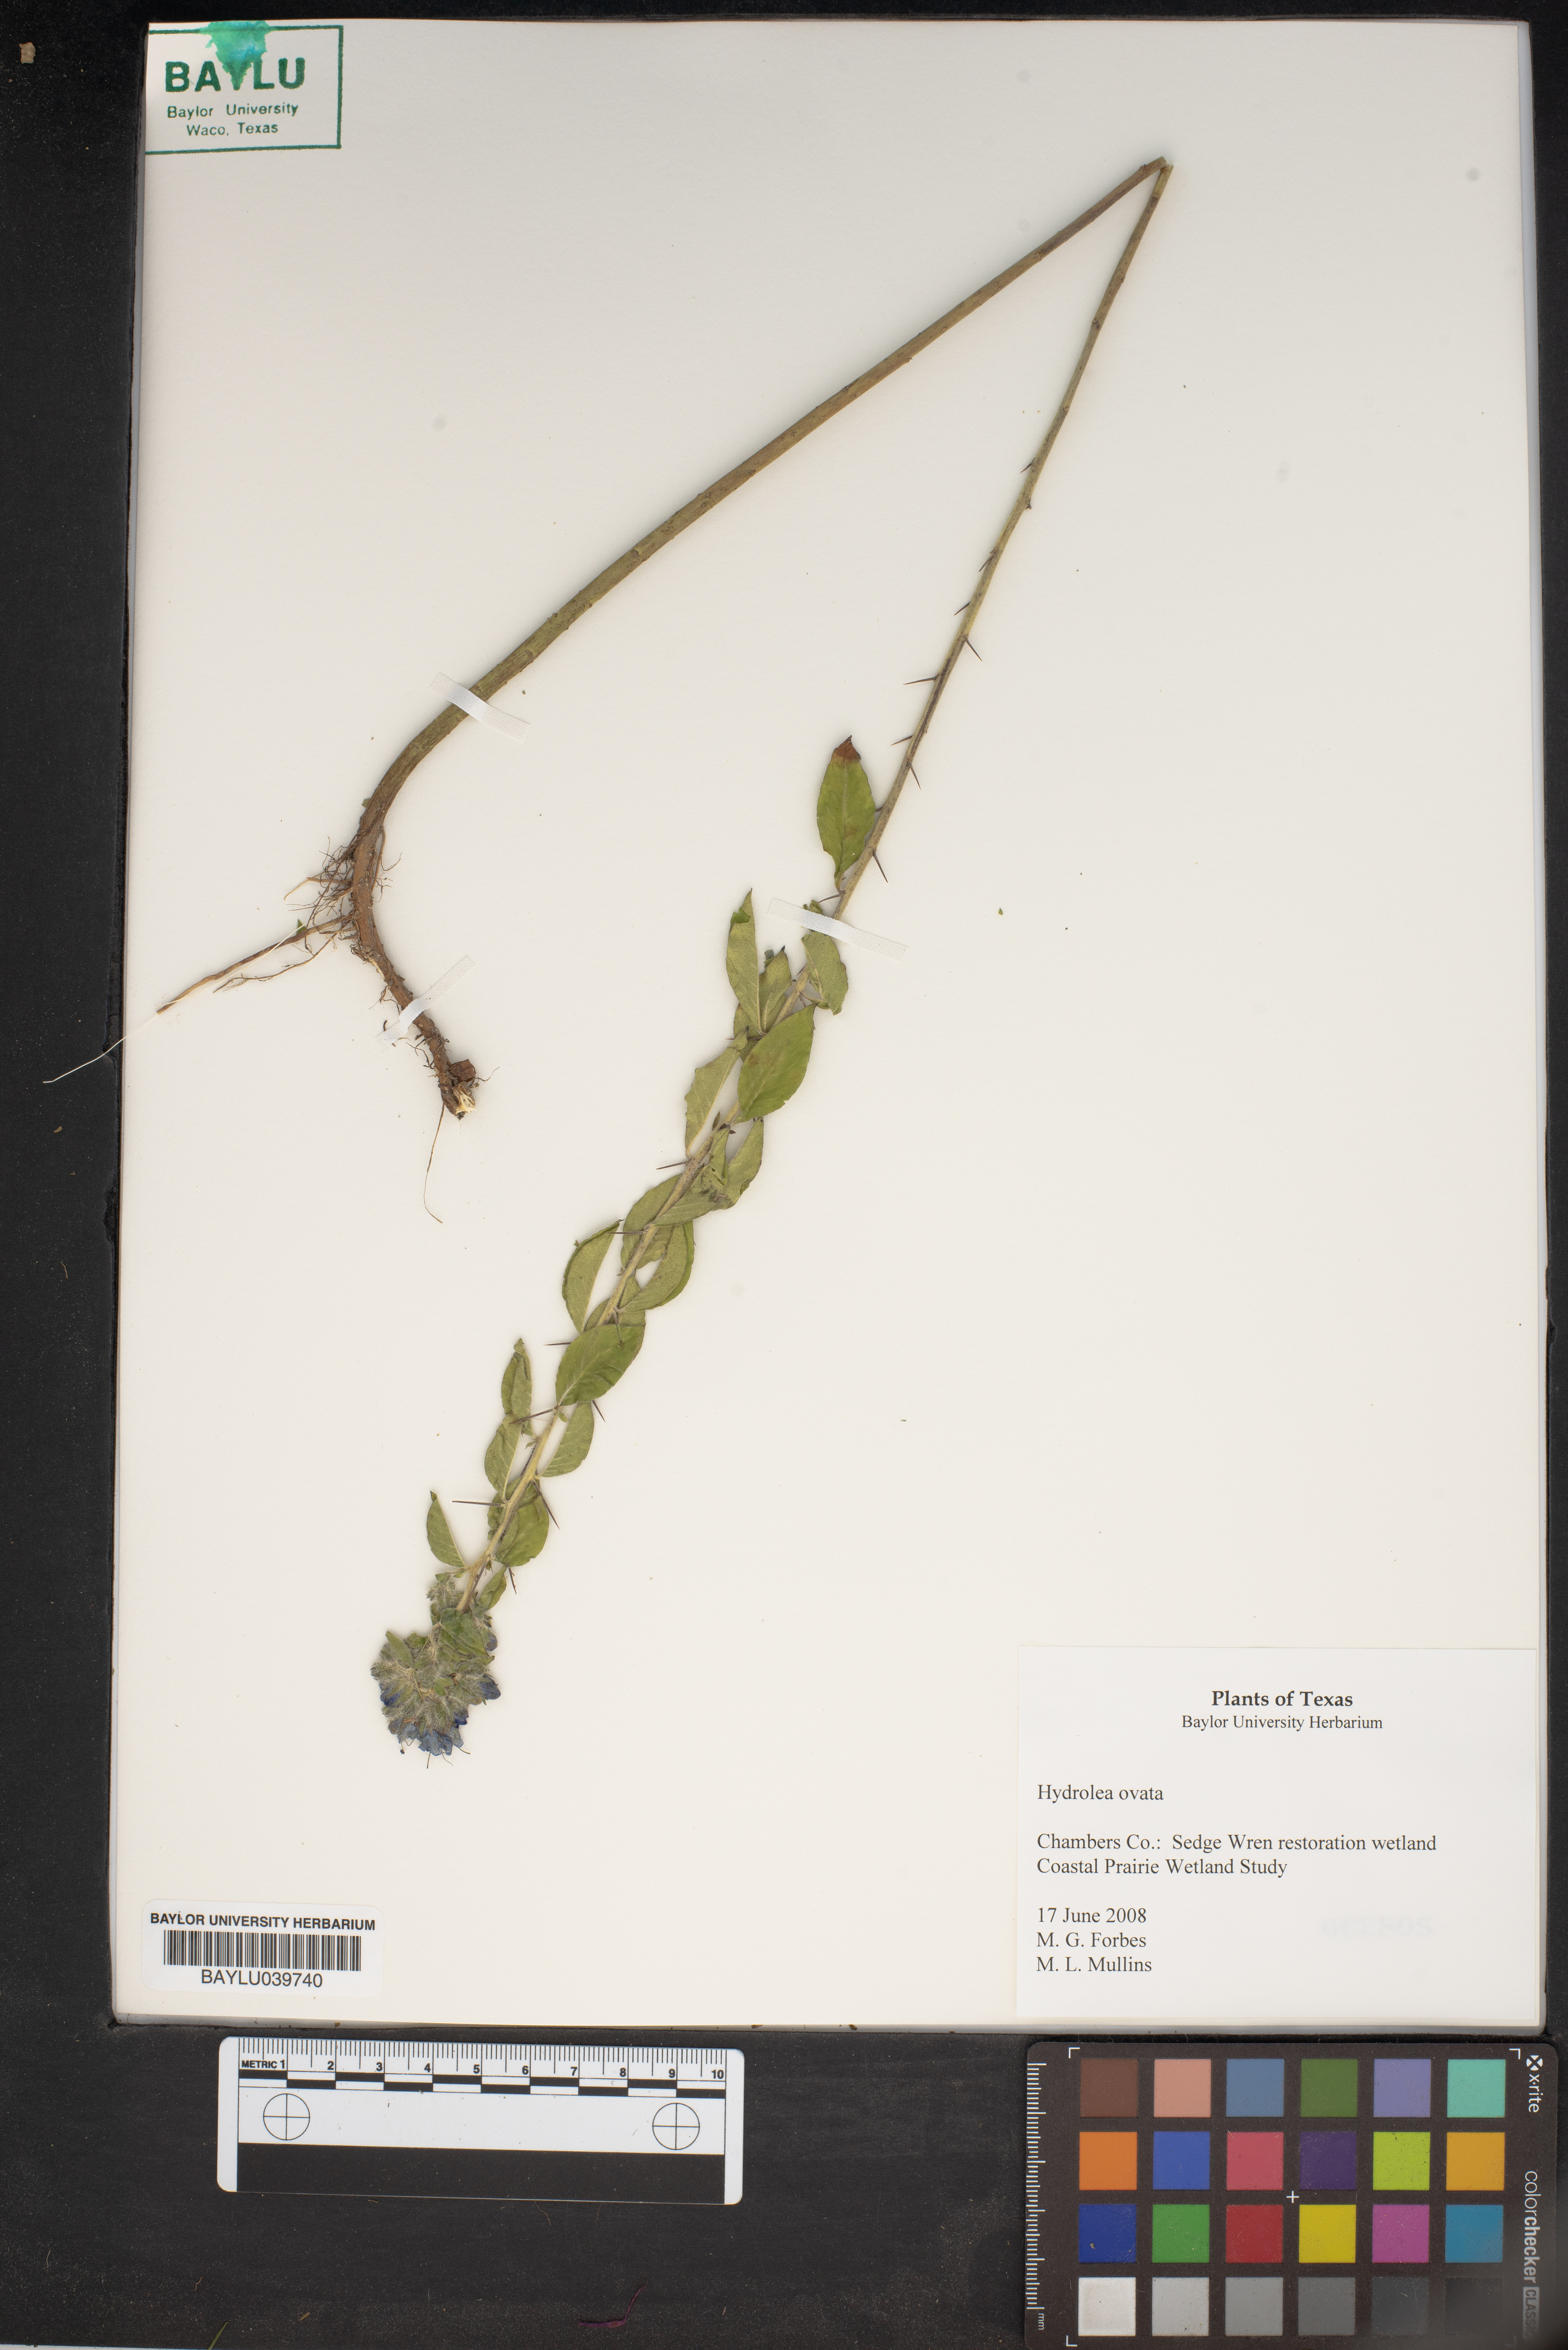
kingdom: Plantae
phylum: Tracheophyta
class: Magnoliopsida
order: Solanales
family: Hydroleaceae
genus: Hydrolea
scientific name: Hydrolea ovata
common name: Ovate false fiddleleaf
